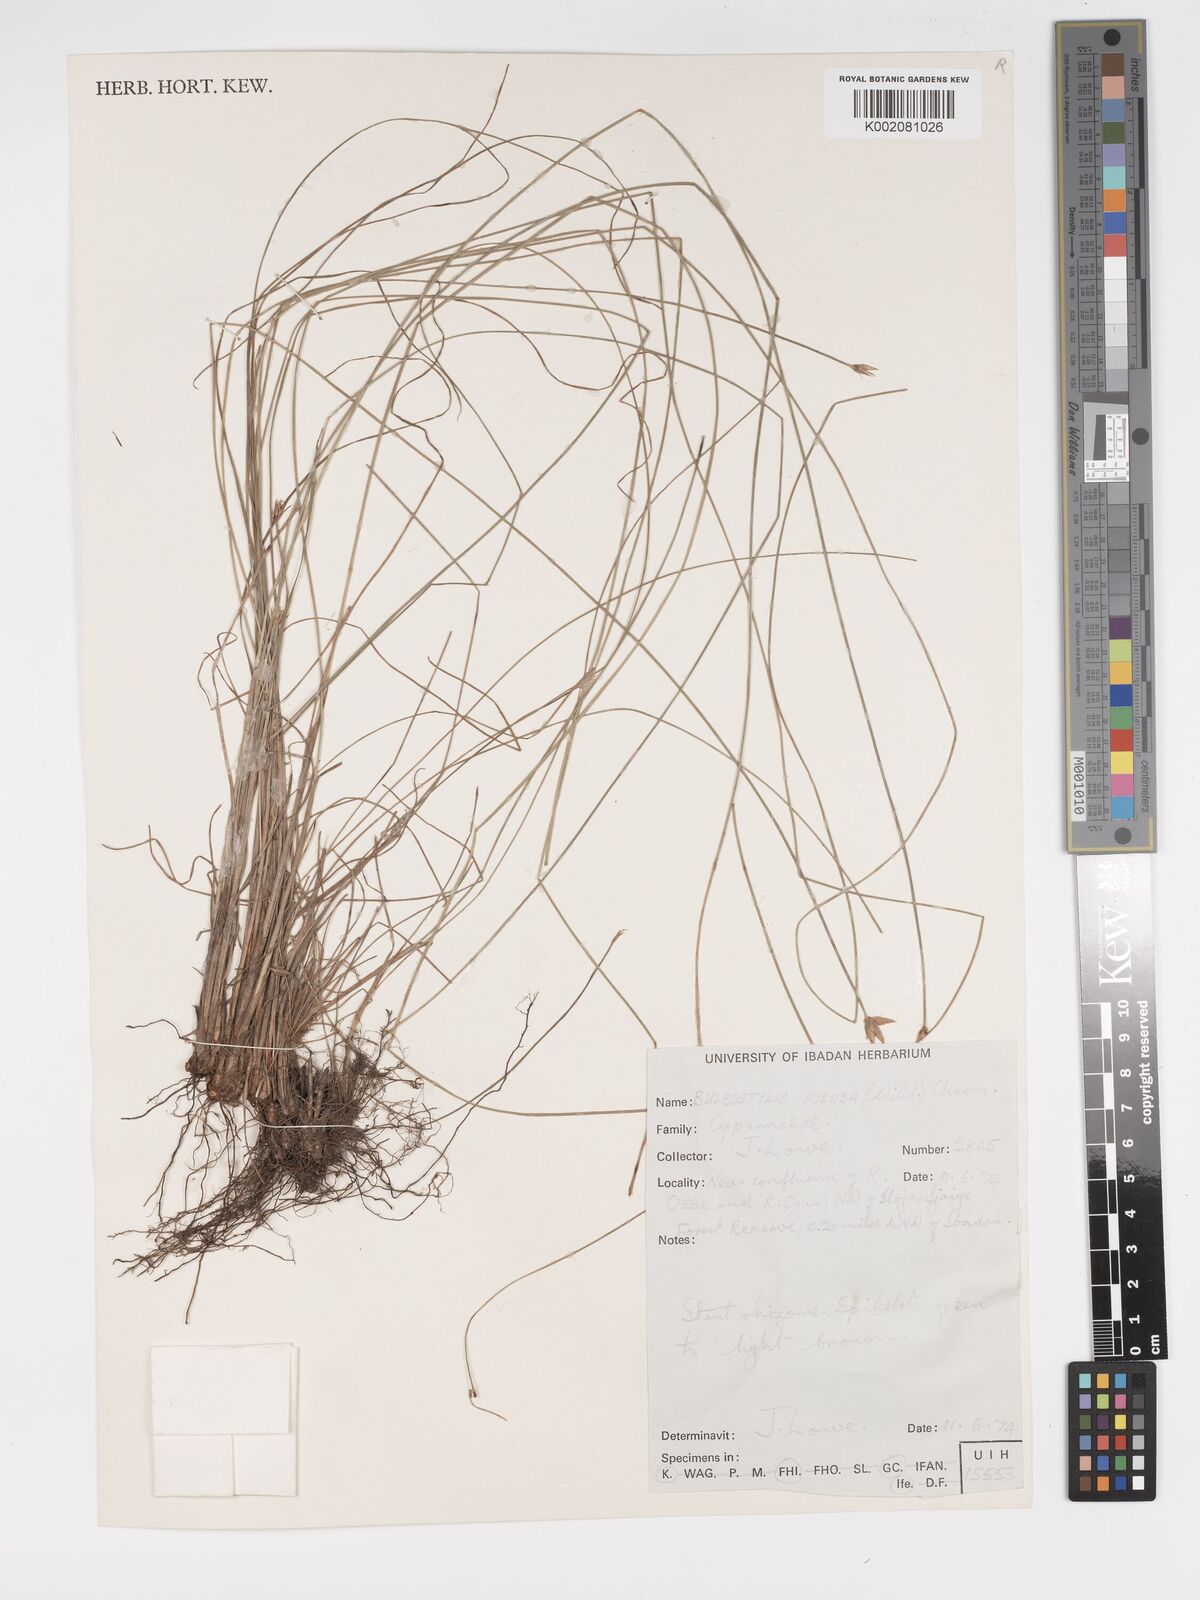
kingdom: Plantae
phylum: Tracheophyta
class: Liliopsida
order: Poales
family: Cyperaceae
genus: Bulbostylis
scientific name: Bulbostylis pilosa
